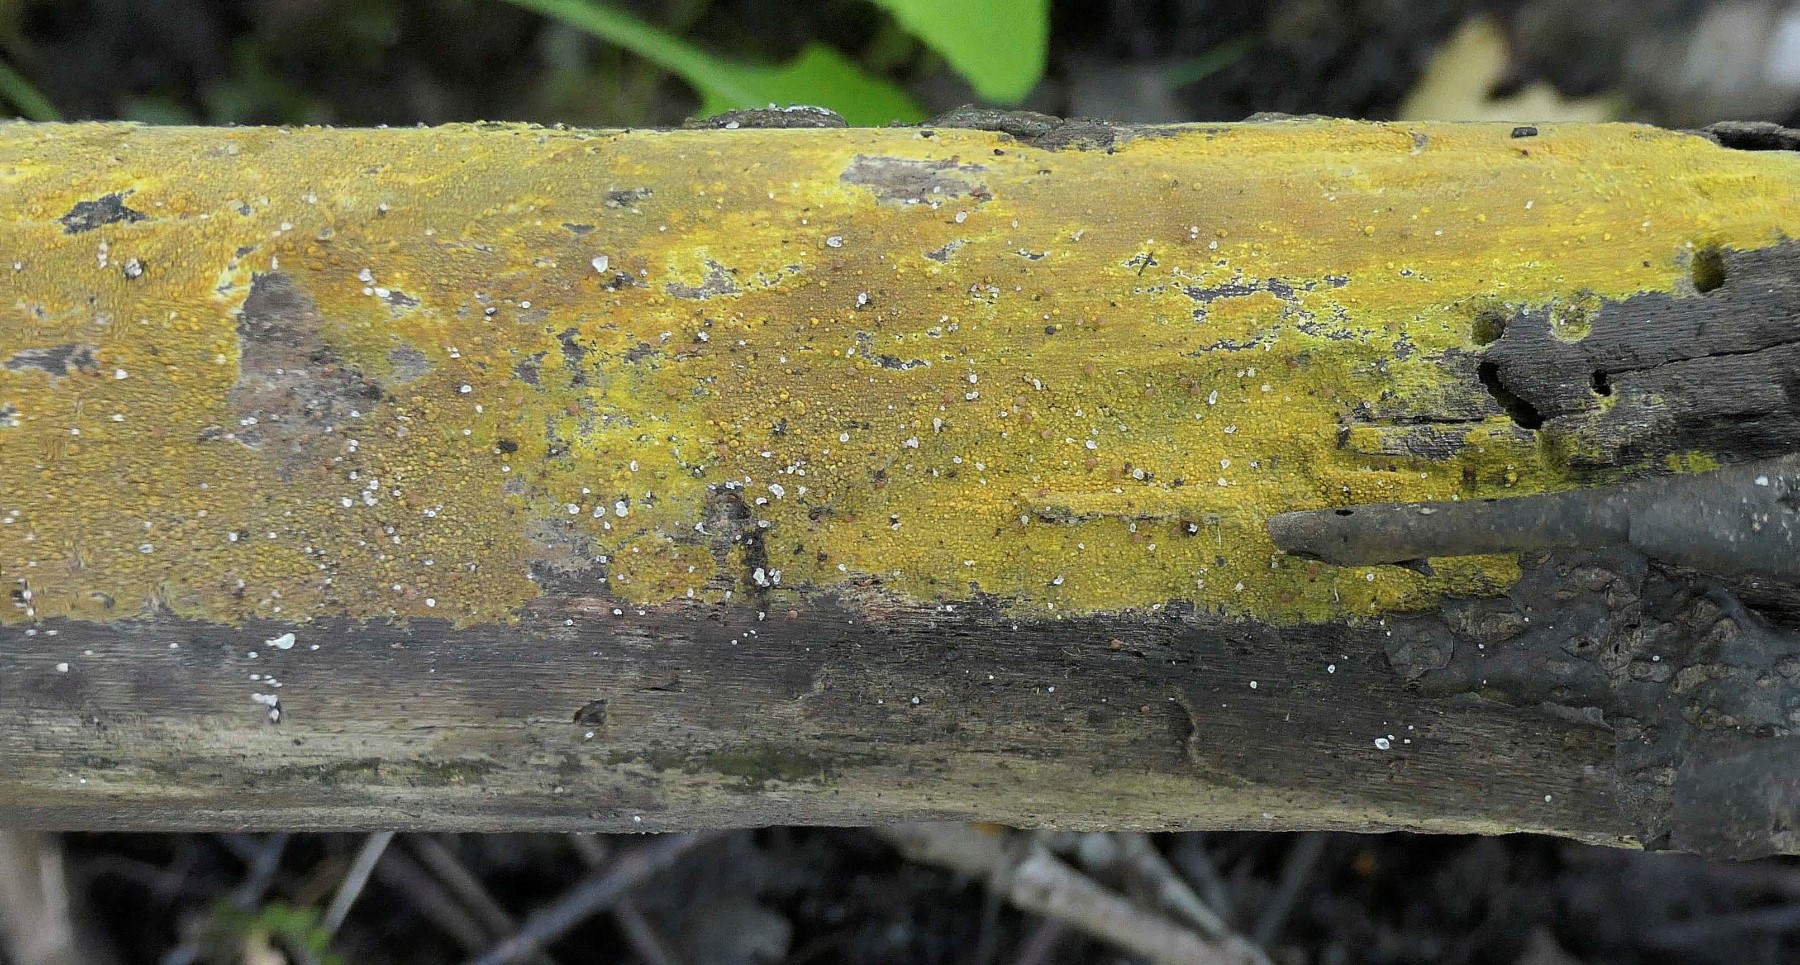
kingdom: Fungi
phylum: Basidiomycota
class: Agaricomycetes
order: Polyporales
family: Meruliaceae
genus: Phlebiodontia
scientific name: Phlebiodontia subochracea
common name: svovl-åresvamp
